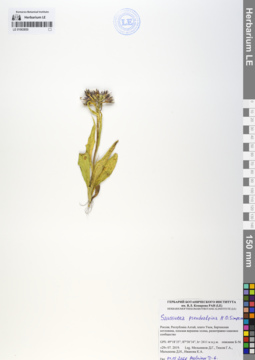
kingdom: Plantae
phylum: Tracheophyta
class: Magnoliopsida
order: Asterales
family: Asteraceae
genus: Saussurea
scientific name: Saussurea pseudoalpina
